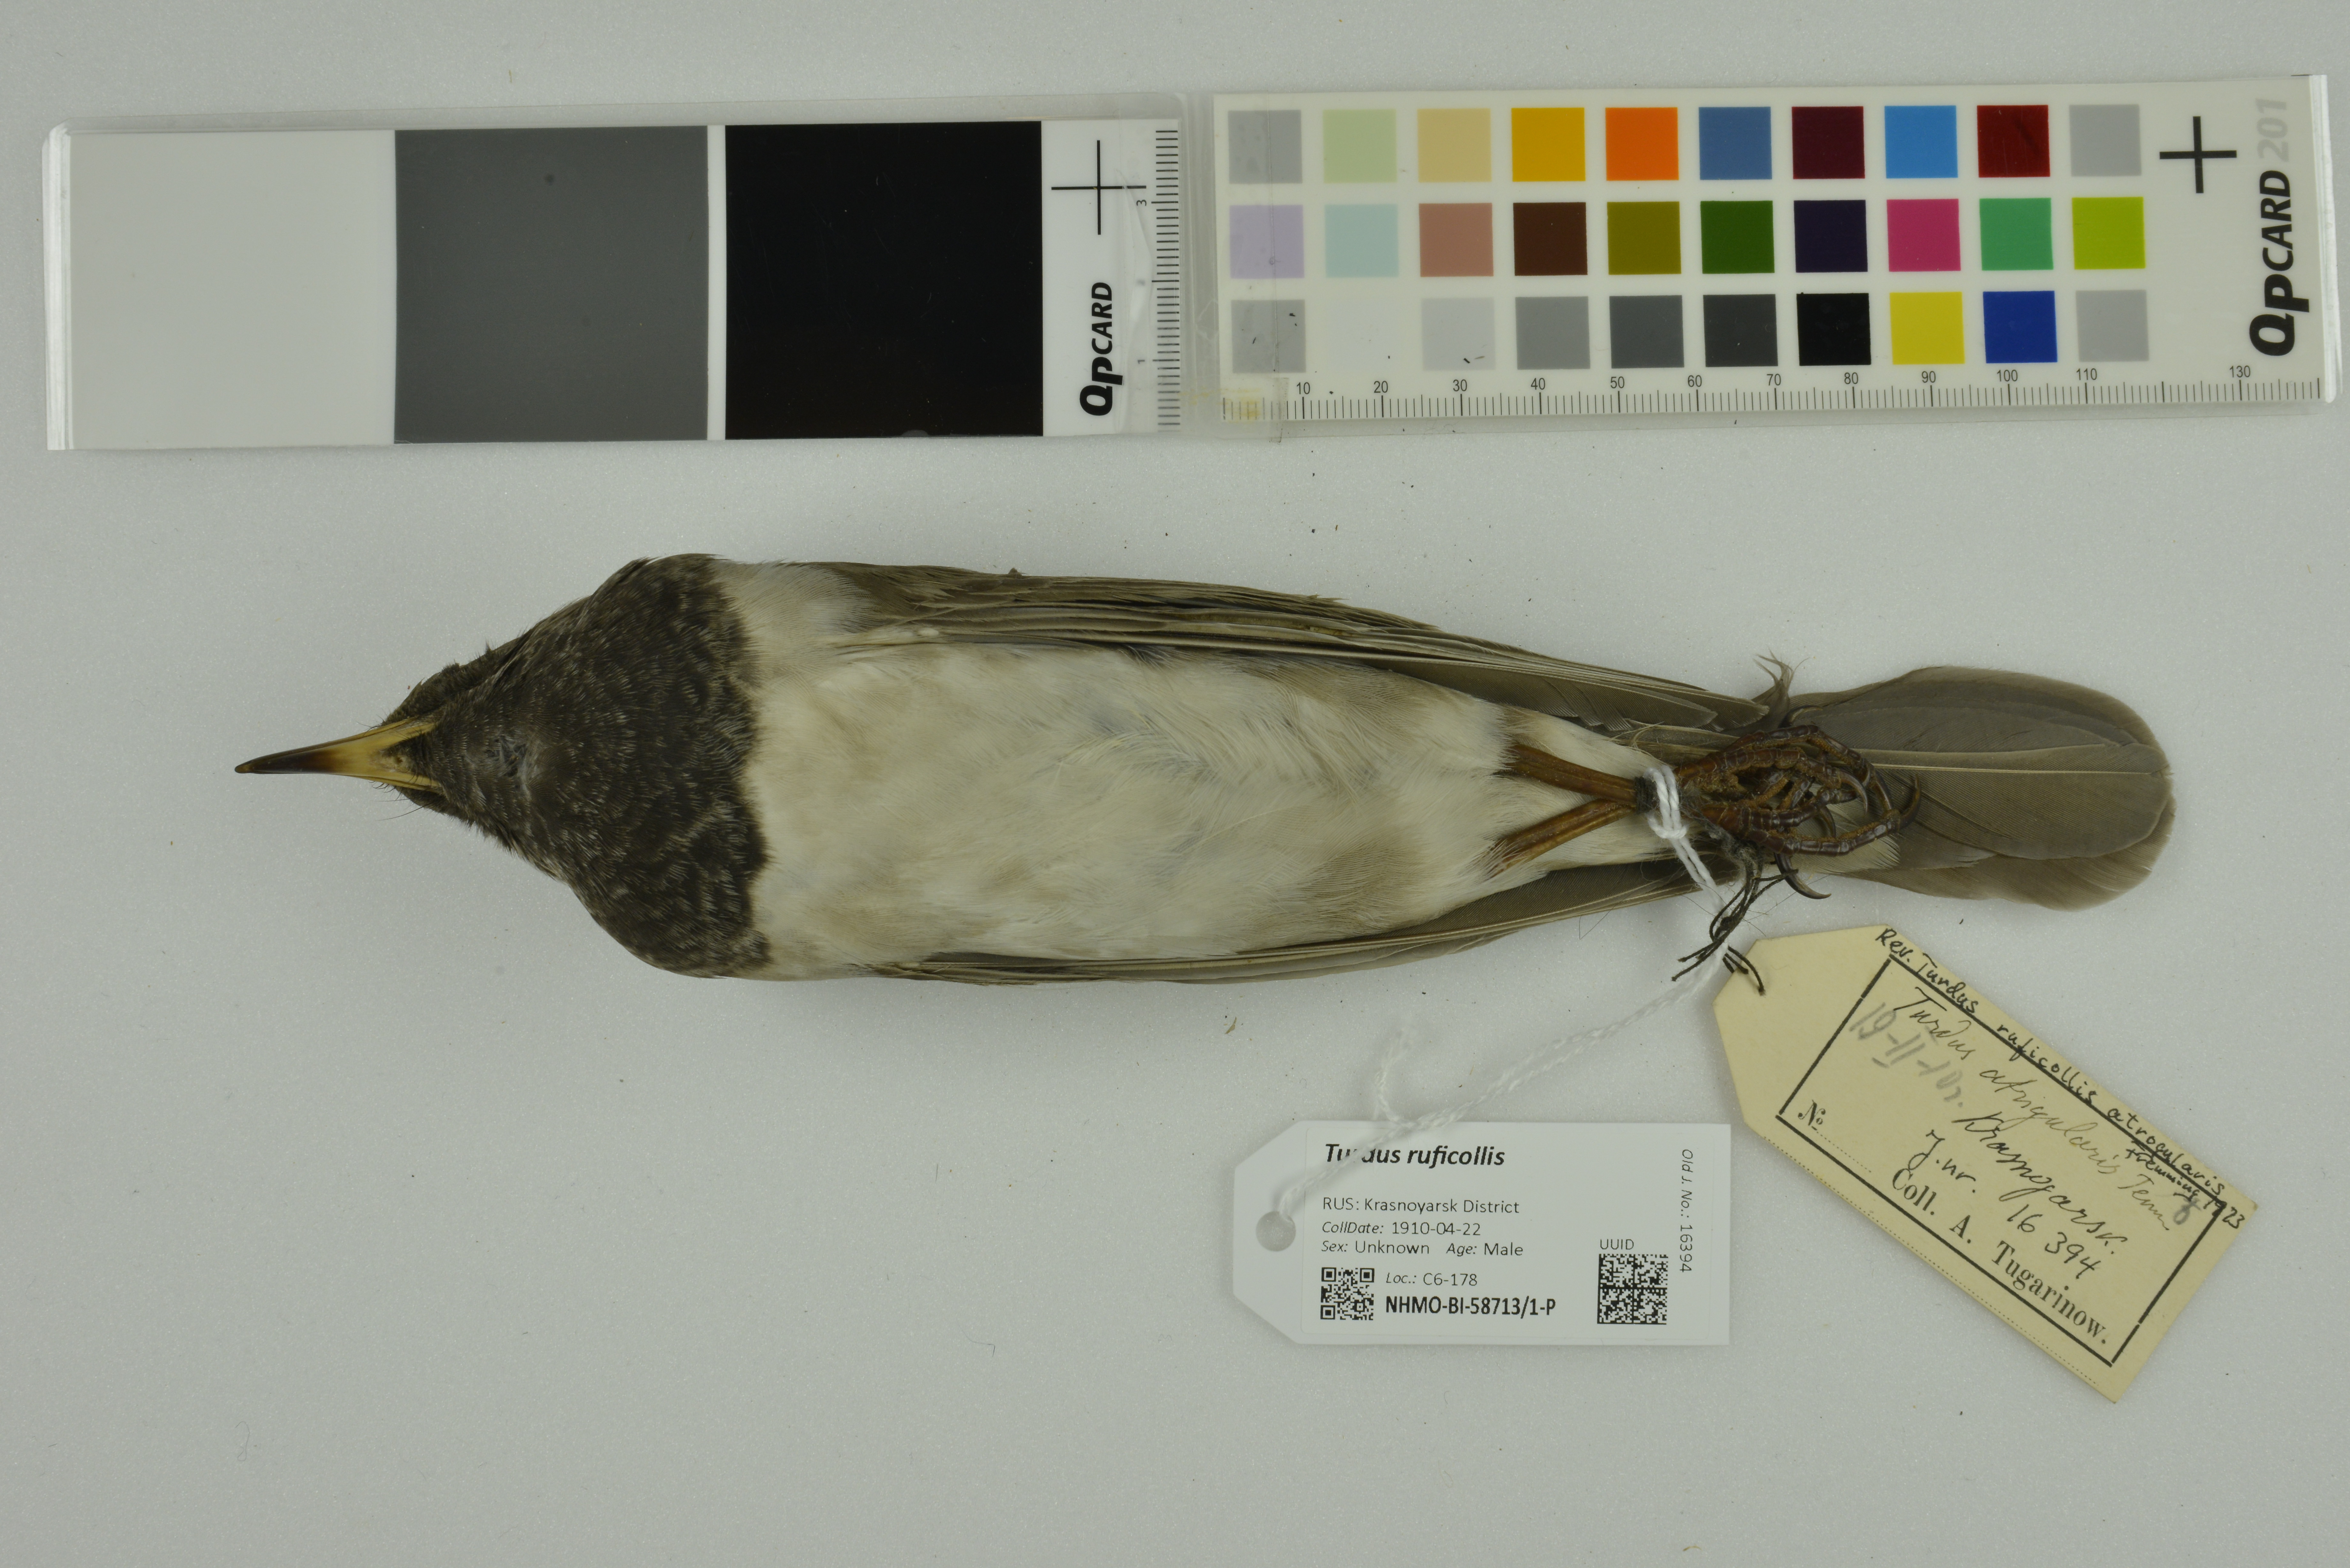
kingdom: Animalia
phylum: Chordata
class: Aves
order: Passeriformes
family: Turdidae
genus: Turdus
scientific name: Turdus ruficollis
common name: Red-throated thrush
